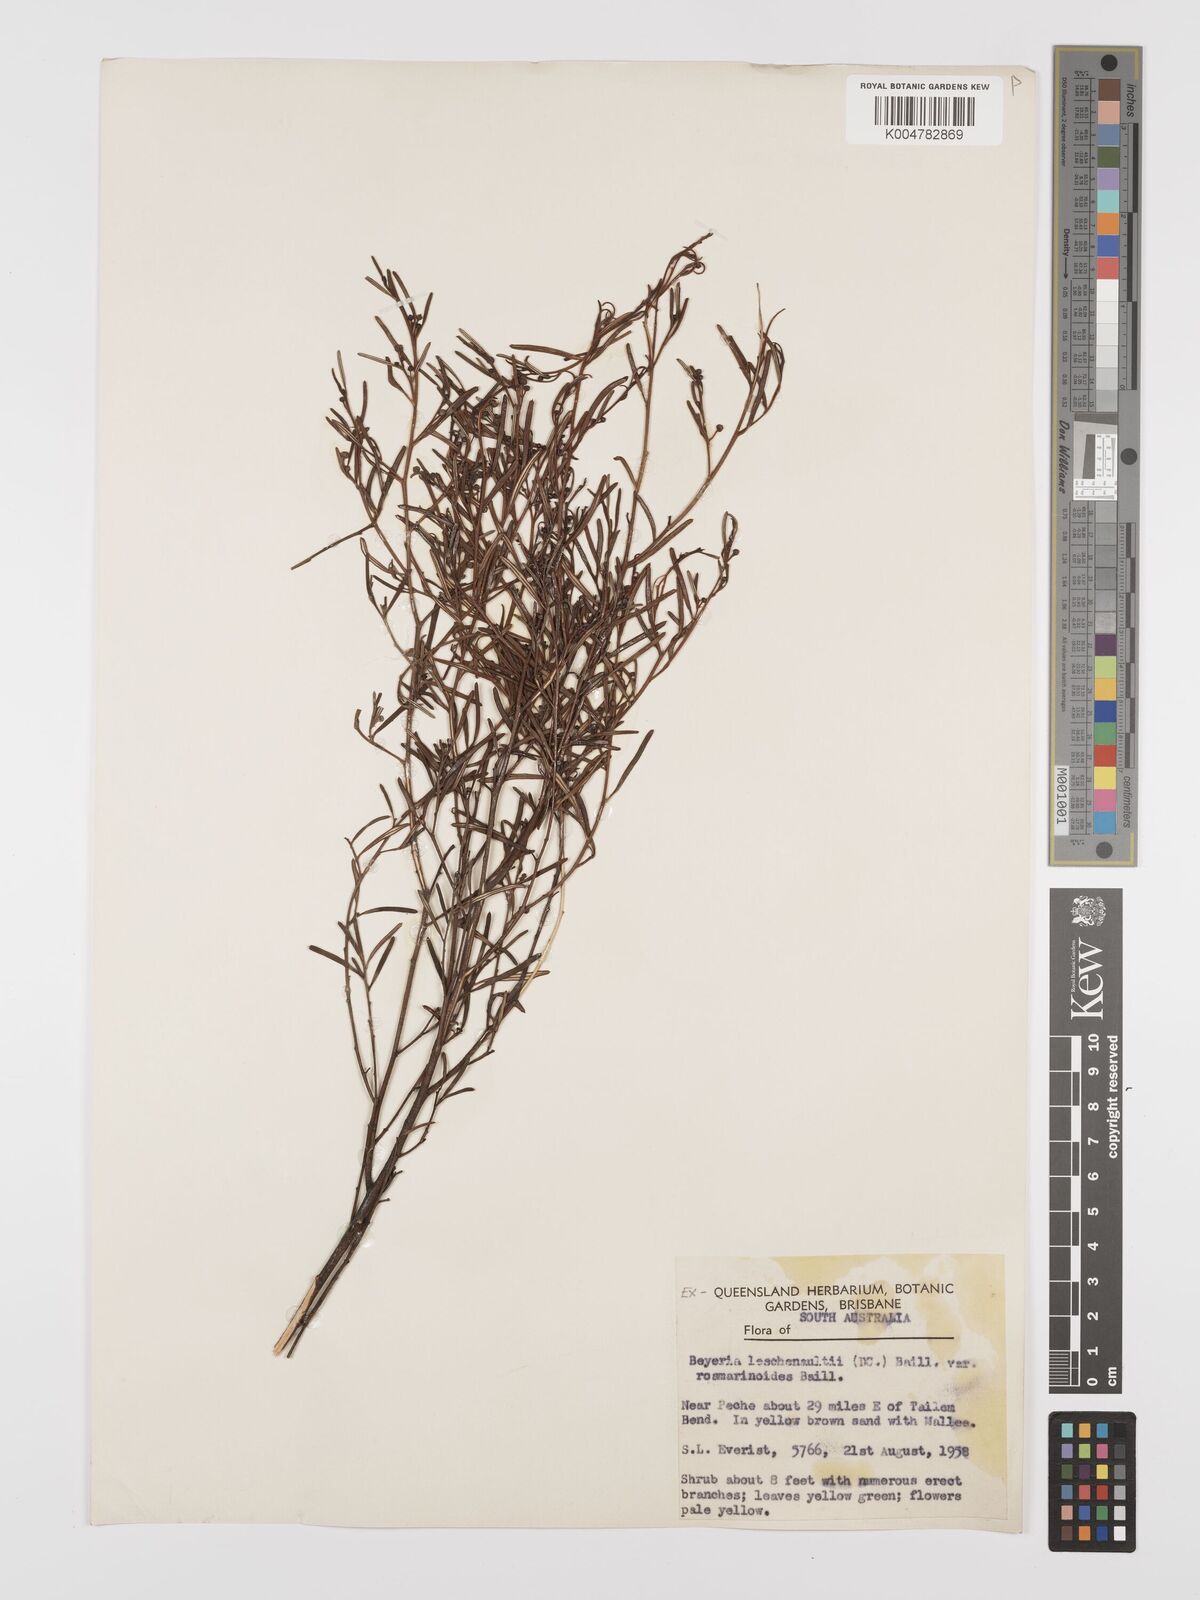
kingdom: Plantae
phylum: Tracheophyta
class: Magnoliopsida
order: Malpighiales
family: Euphorbiaceae
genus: Beyeria
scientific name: Beyeria lechenaultii
